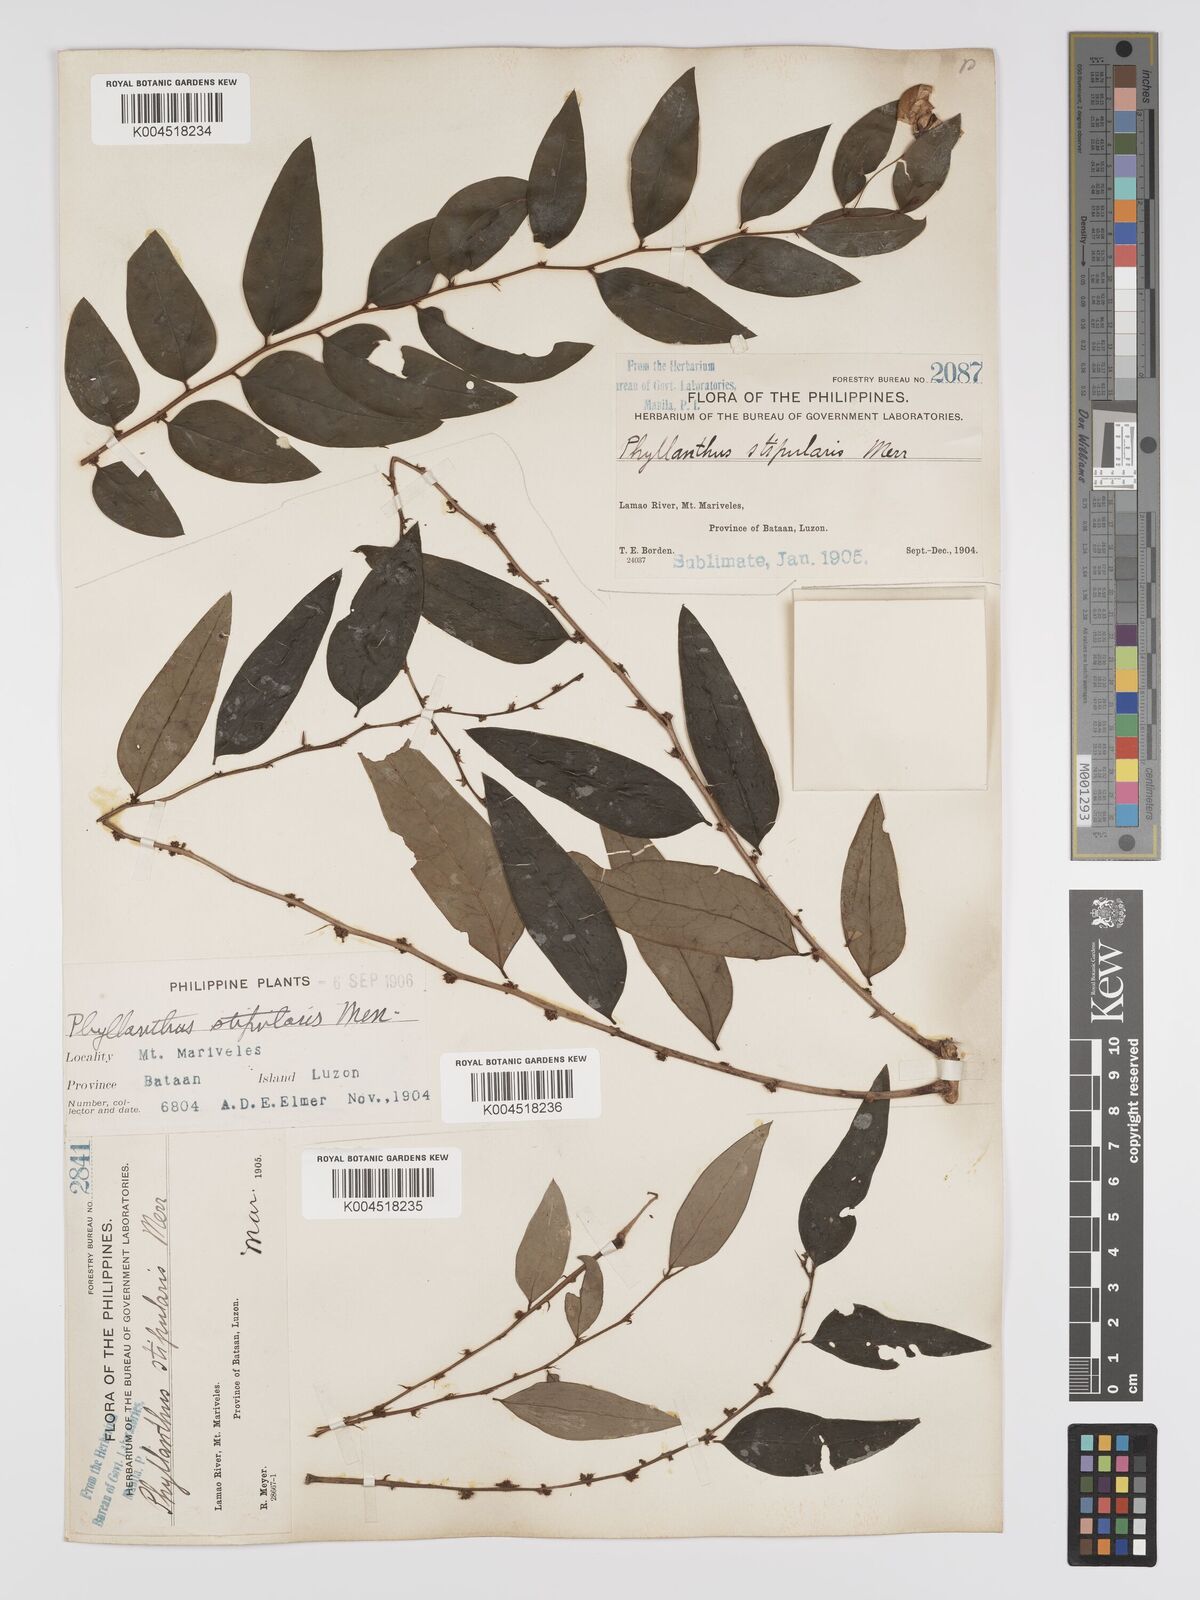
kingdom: Plantae
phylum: Tracheophyta
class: Magnoliopsida
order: Malpighiales
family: Phyllanthaceae
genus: Phyllanthus
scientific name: Phyllanthus stipularis
